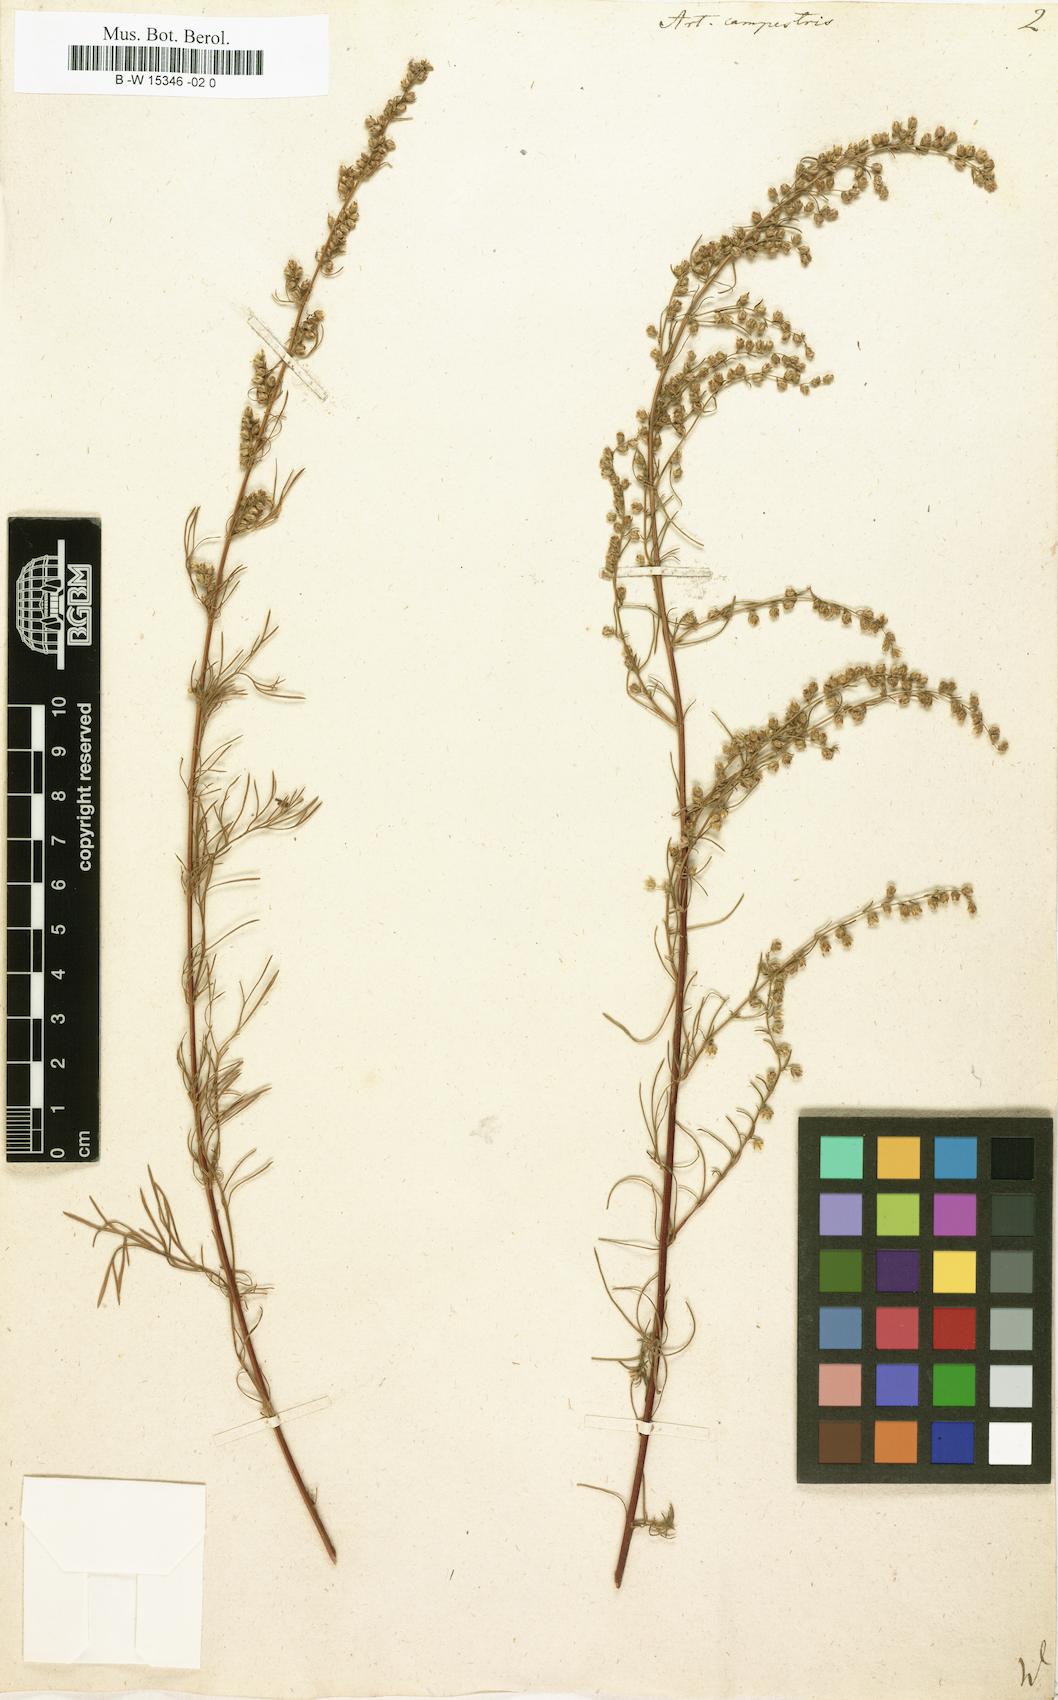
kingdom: Plantae
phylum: Tracheophyta
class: Magnoliopsida
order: Asterales
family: Asteraceae
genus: Artemisia
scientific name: Artemisia campestris
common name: Field wormwood
